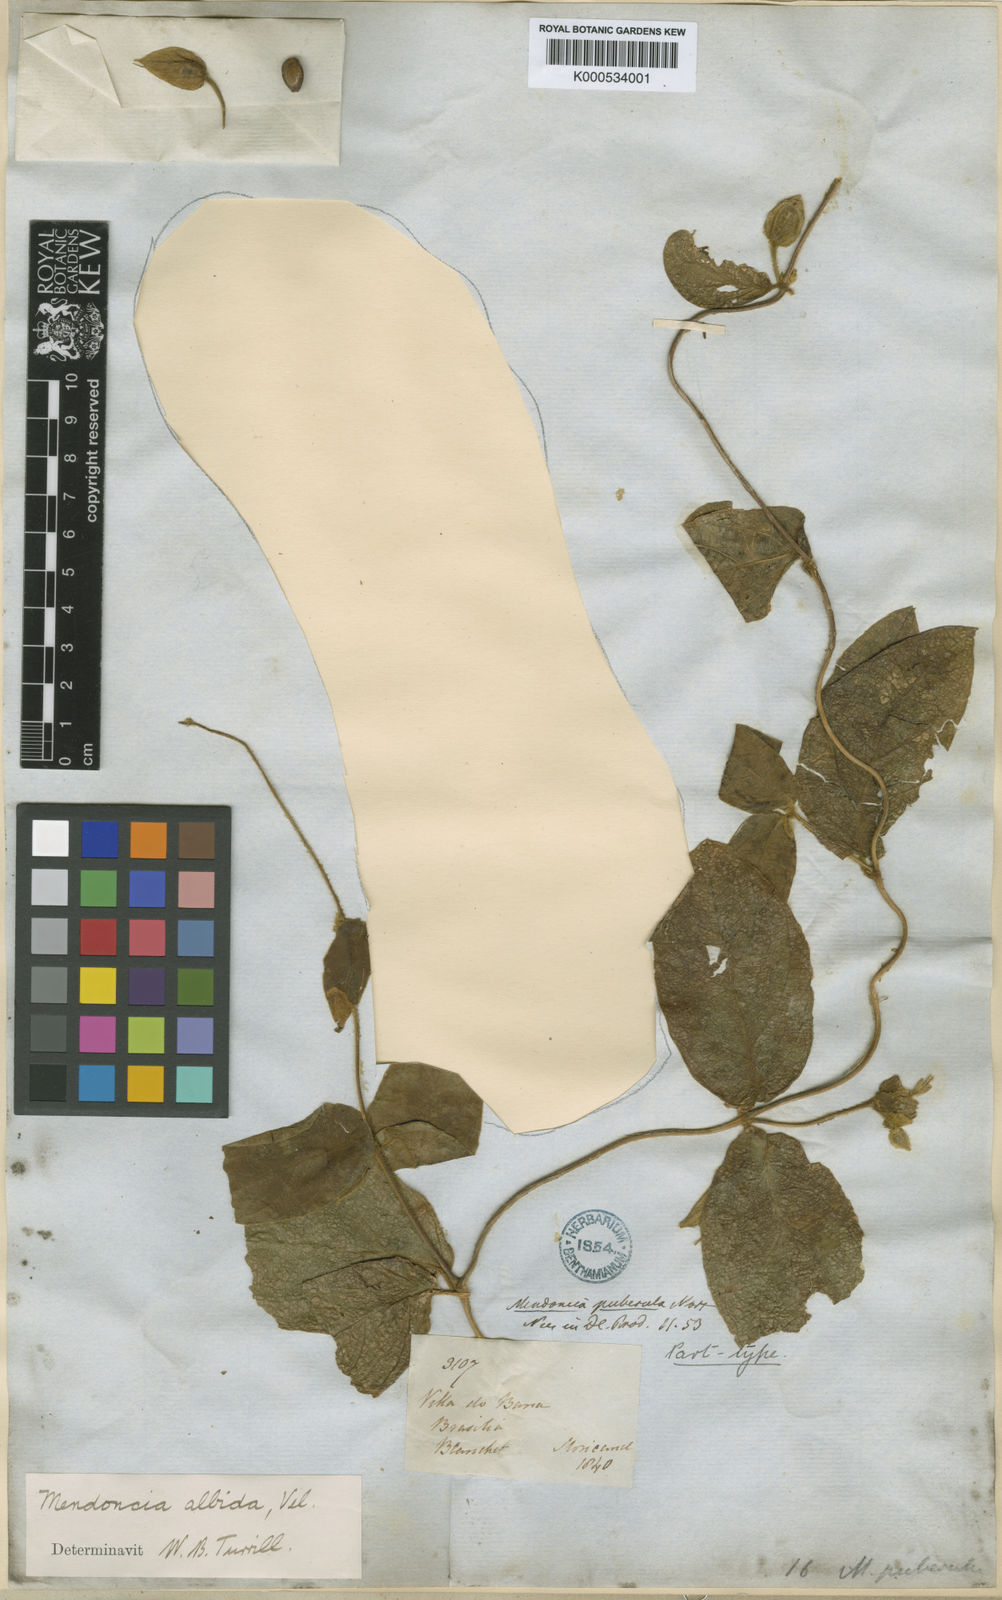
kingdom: Plantae
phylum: Tracheophyta
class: Magnoliopsida
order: Lamiales
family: Acanthaceae
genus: Mendoncia
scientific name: Mendoncia puberula
